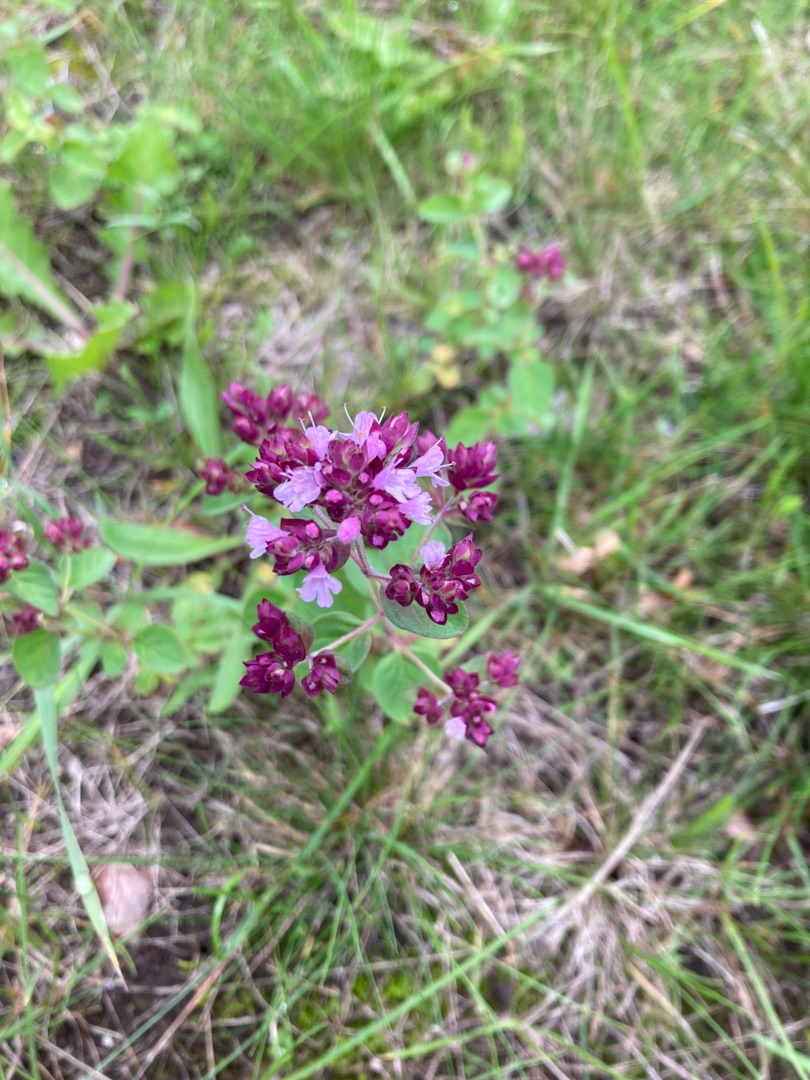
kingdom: Plantae
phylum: Tracheophyta
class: Magnoliopsida
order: Lamiales
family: Lamiaceae
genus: Origanum
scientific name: Origanum vulgare
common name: Merian
